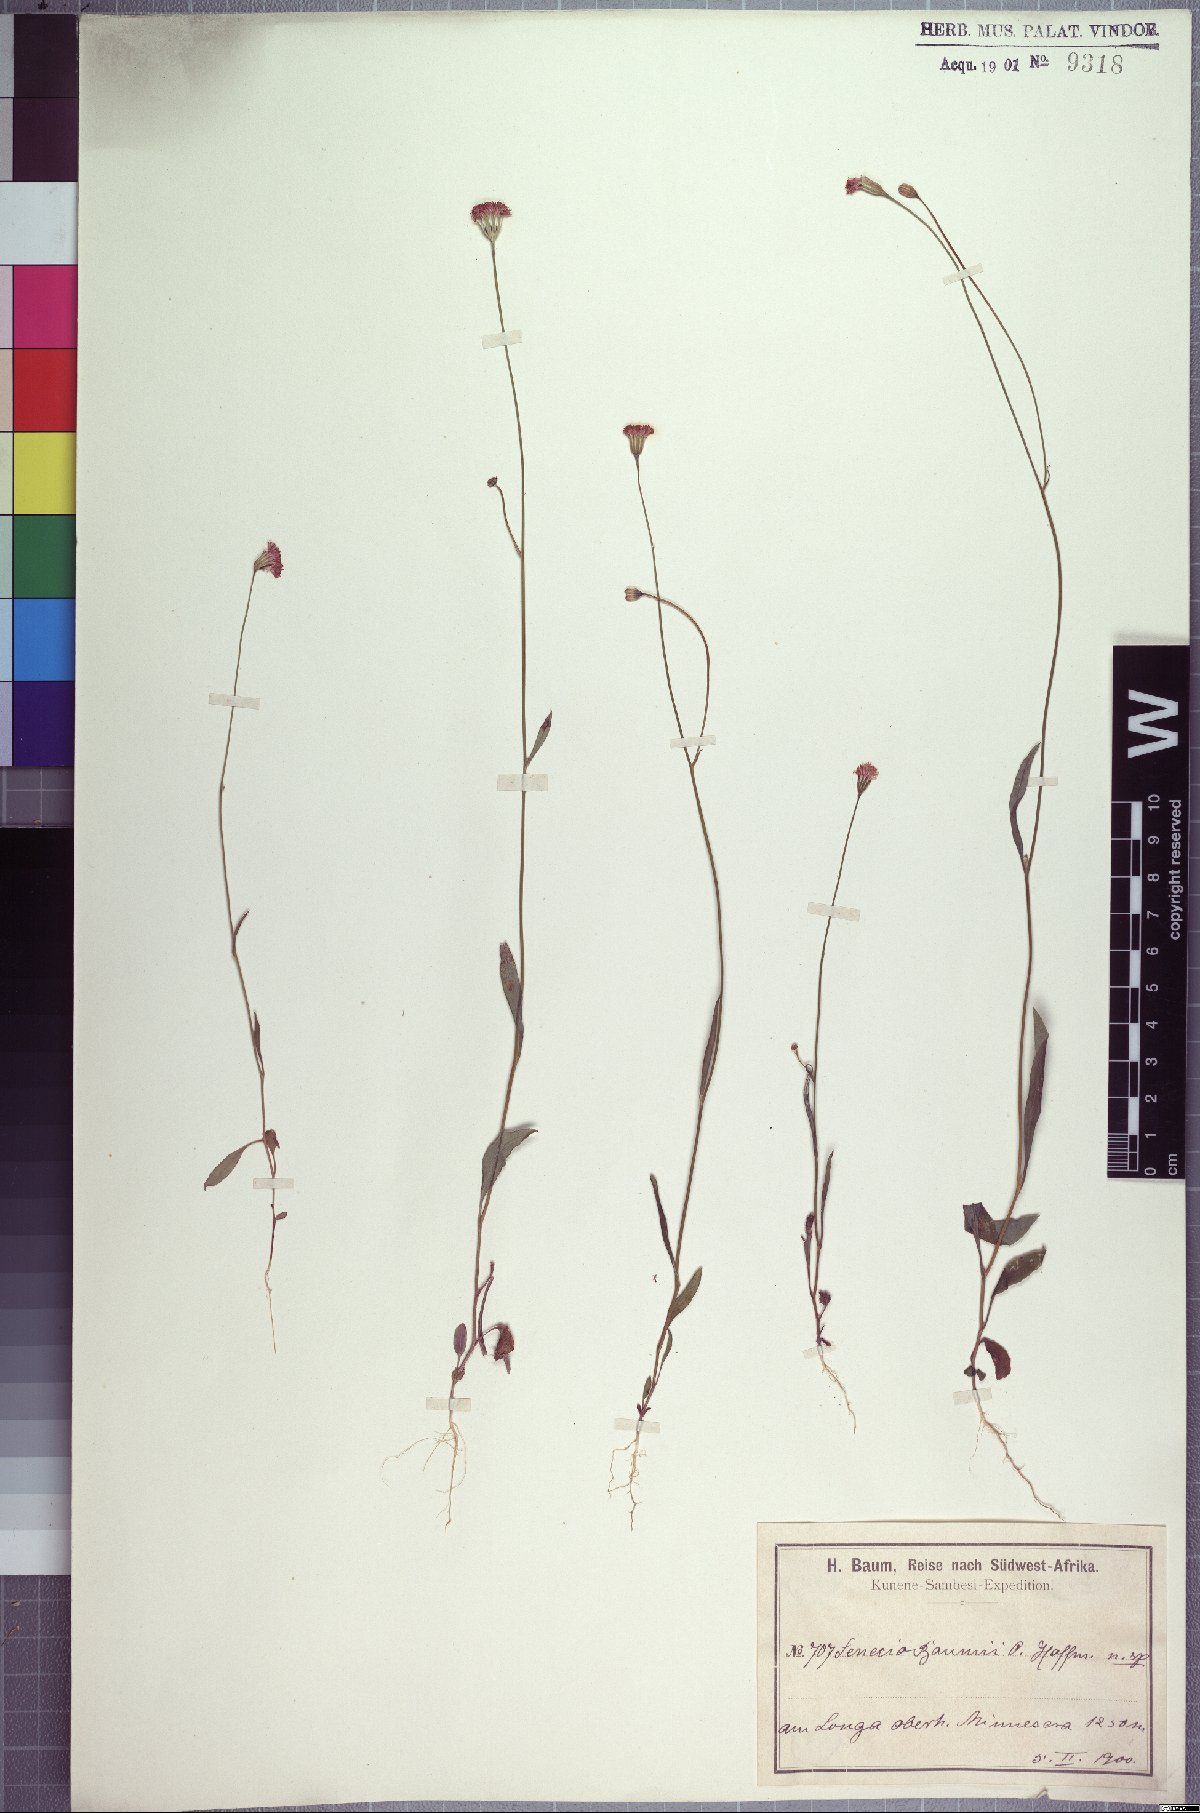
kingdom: Plantae
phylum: Tracheophyta
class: Magnoliopsida
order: Asterales
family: Asteraceae
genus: Emilia
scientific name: Emilia baumii
